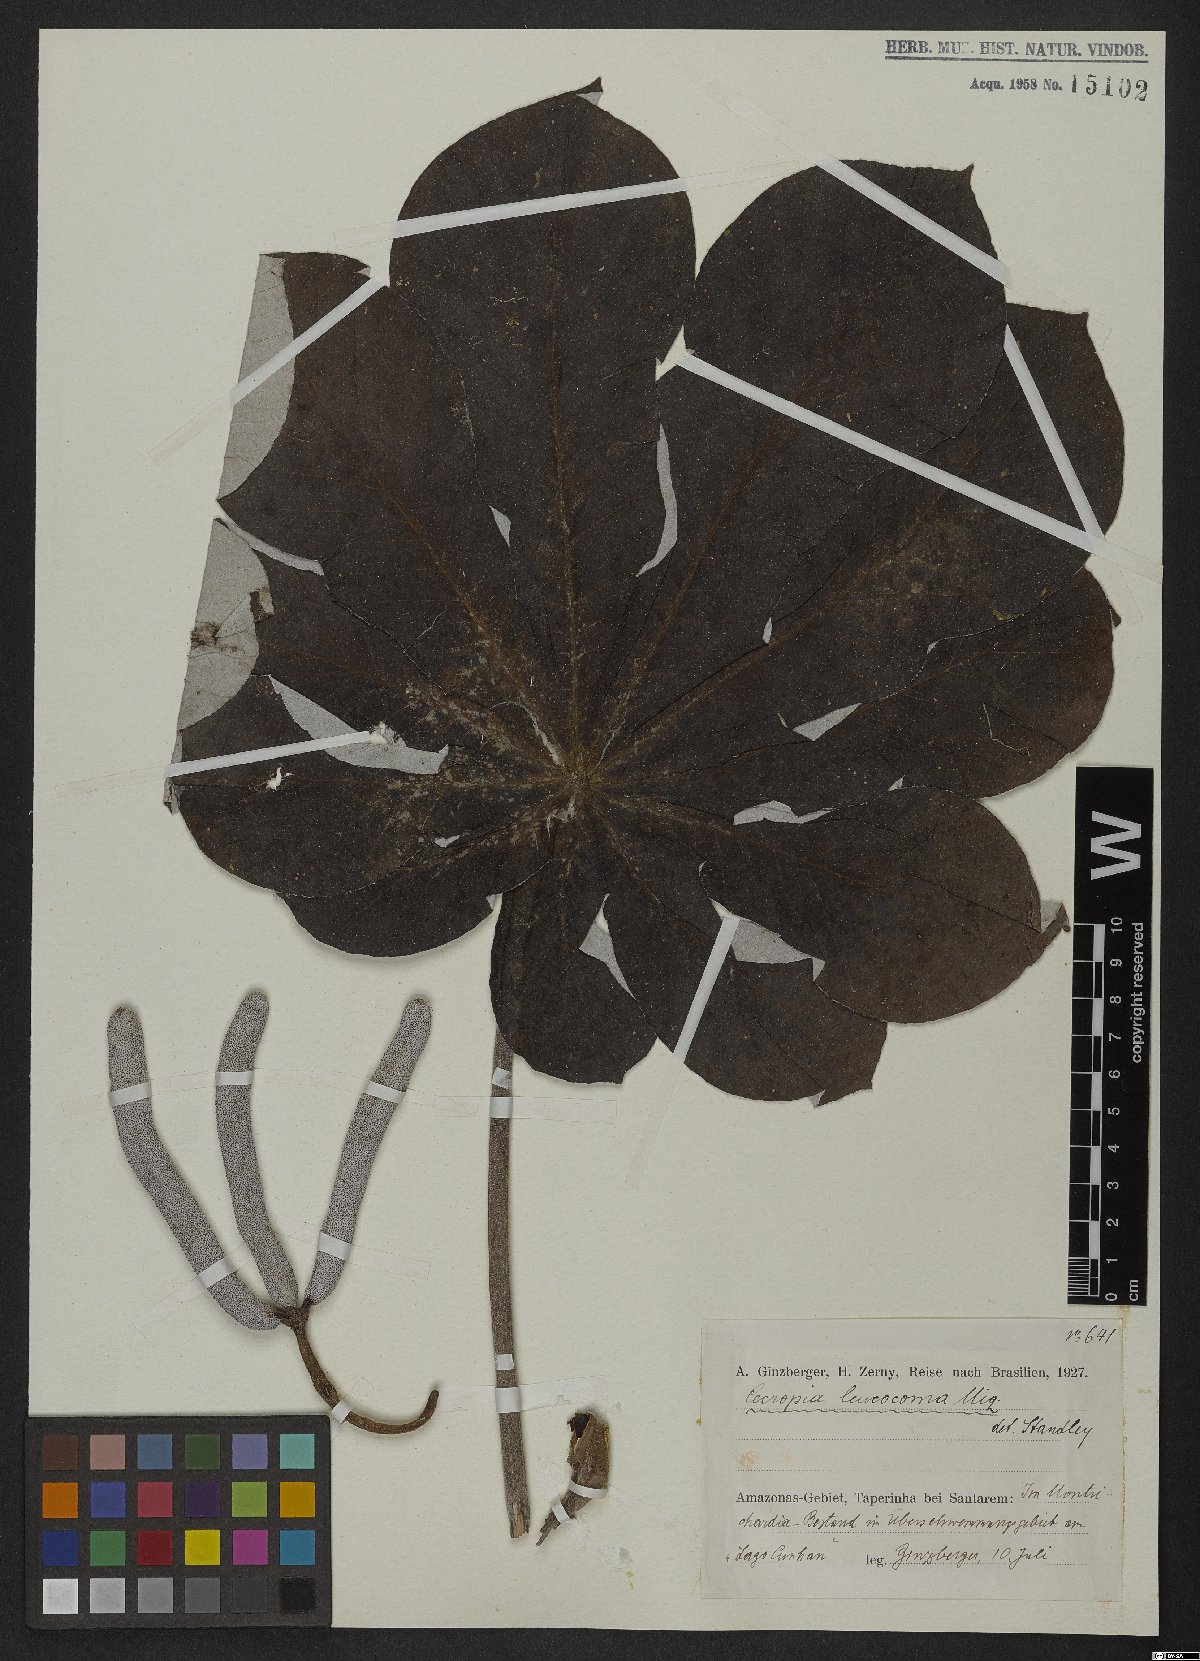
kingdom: Plantae
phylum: Tracheophyta
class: Magnoliopsida
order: Rosales
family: Urticaceae
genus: Cecropia
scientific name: Cecropia concolor
